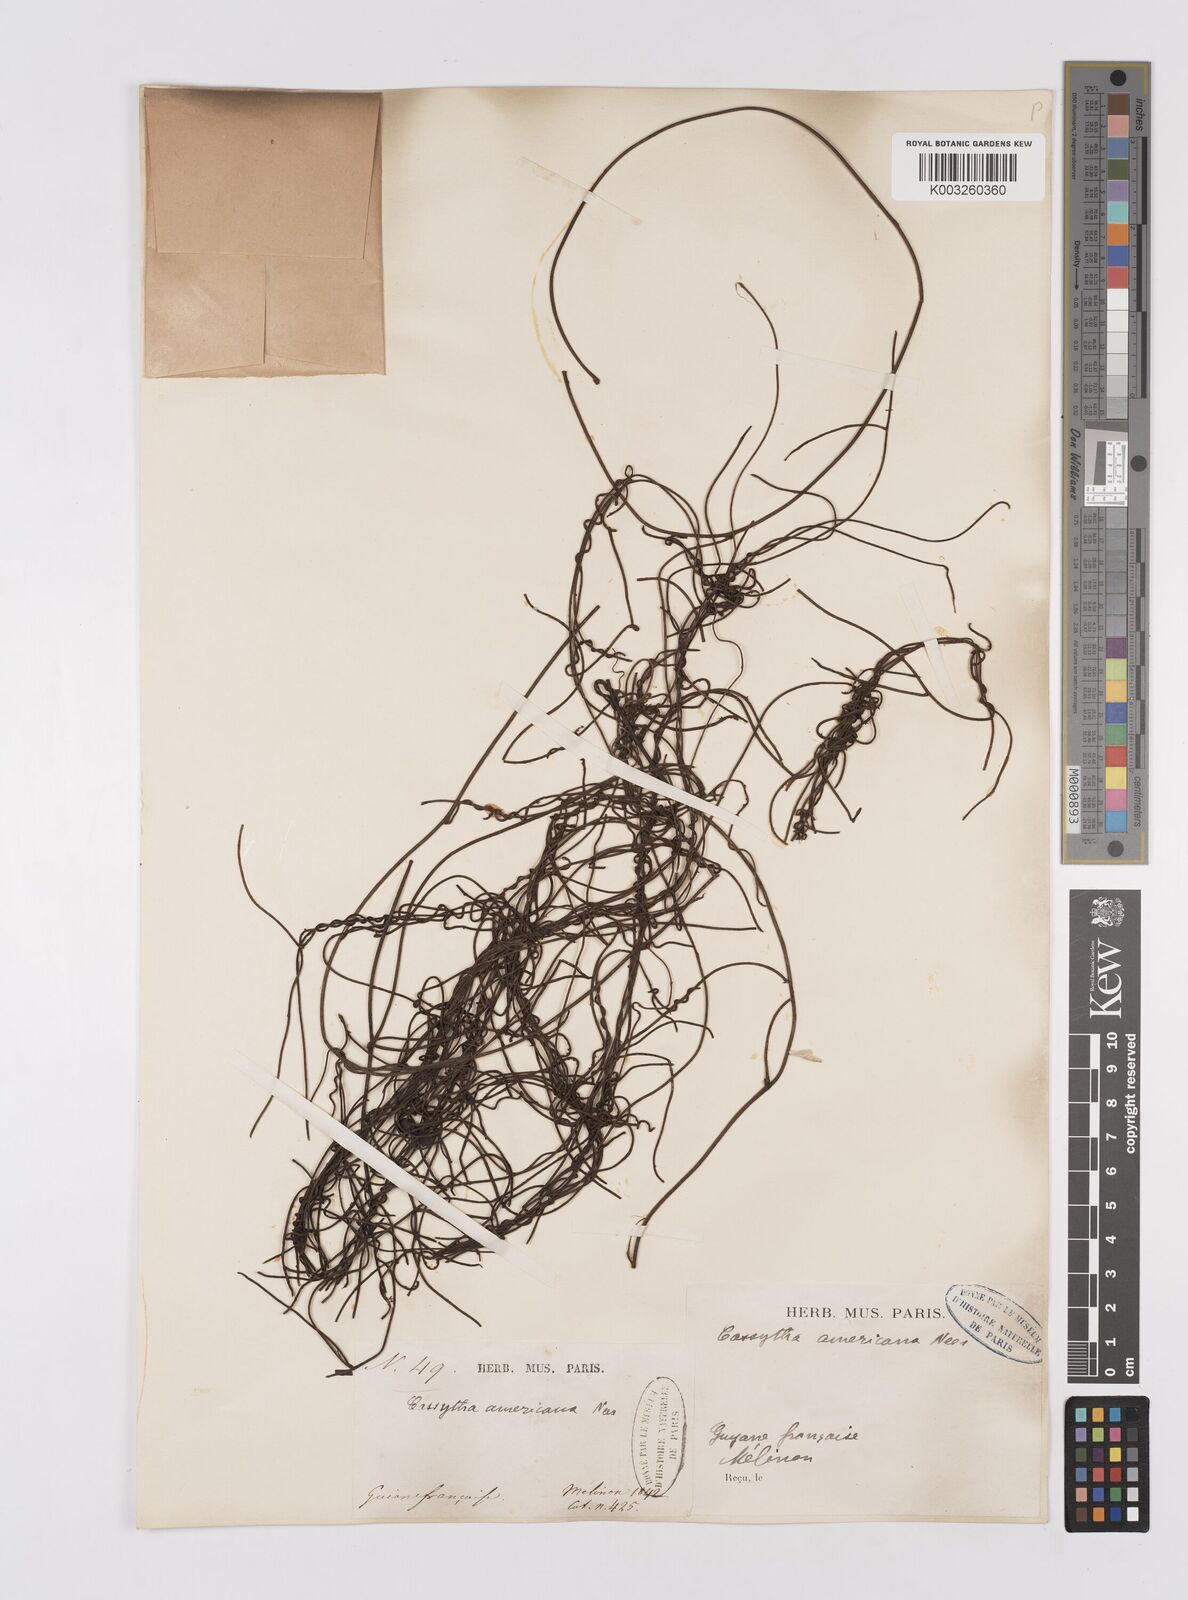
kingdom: Plantae
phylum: Tracheophyta
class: Magnoliopsida
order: Laurales
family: Lauraceae
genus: Cassytha
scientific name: Cassytha filiformis
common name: Dodder-laurel
